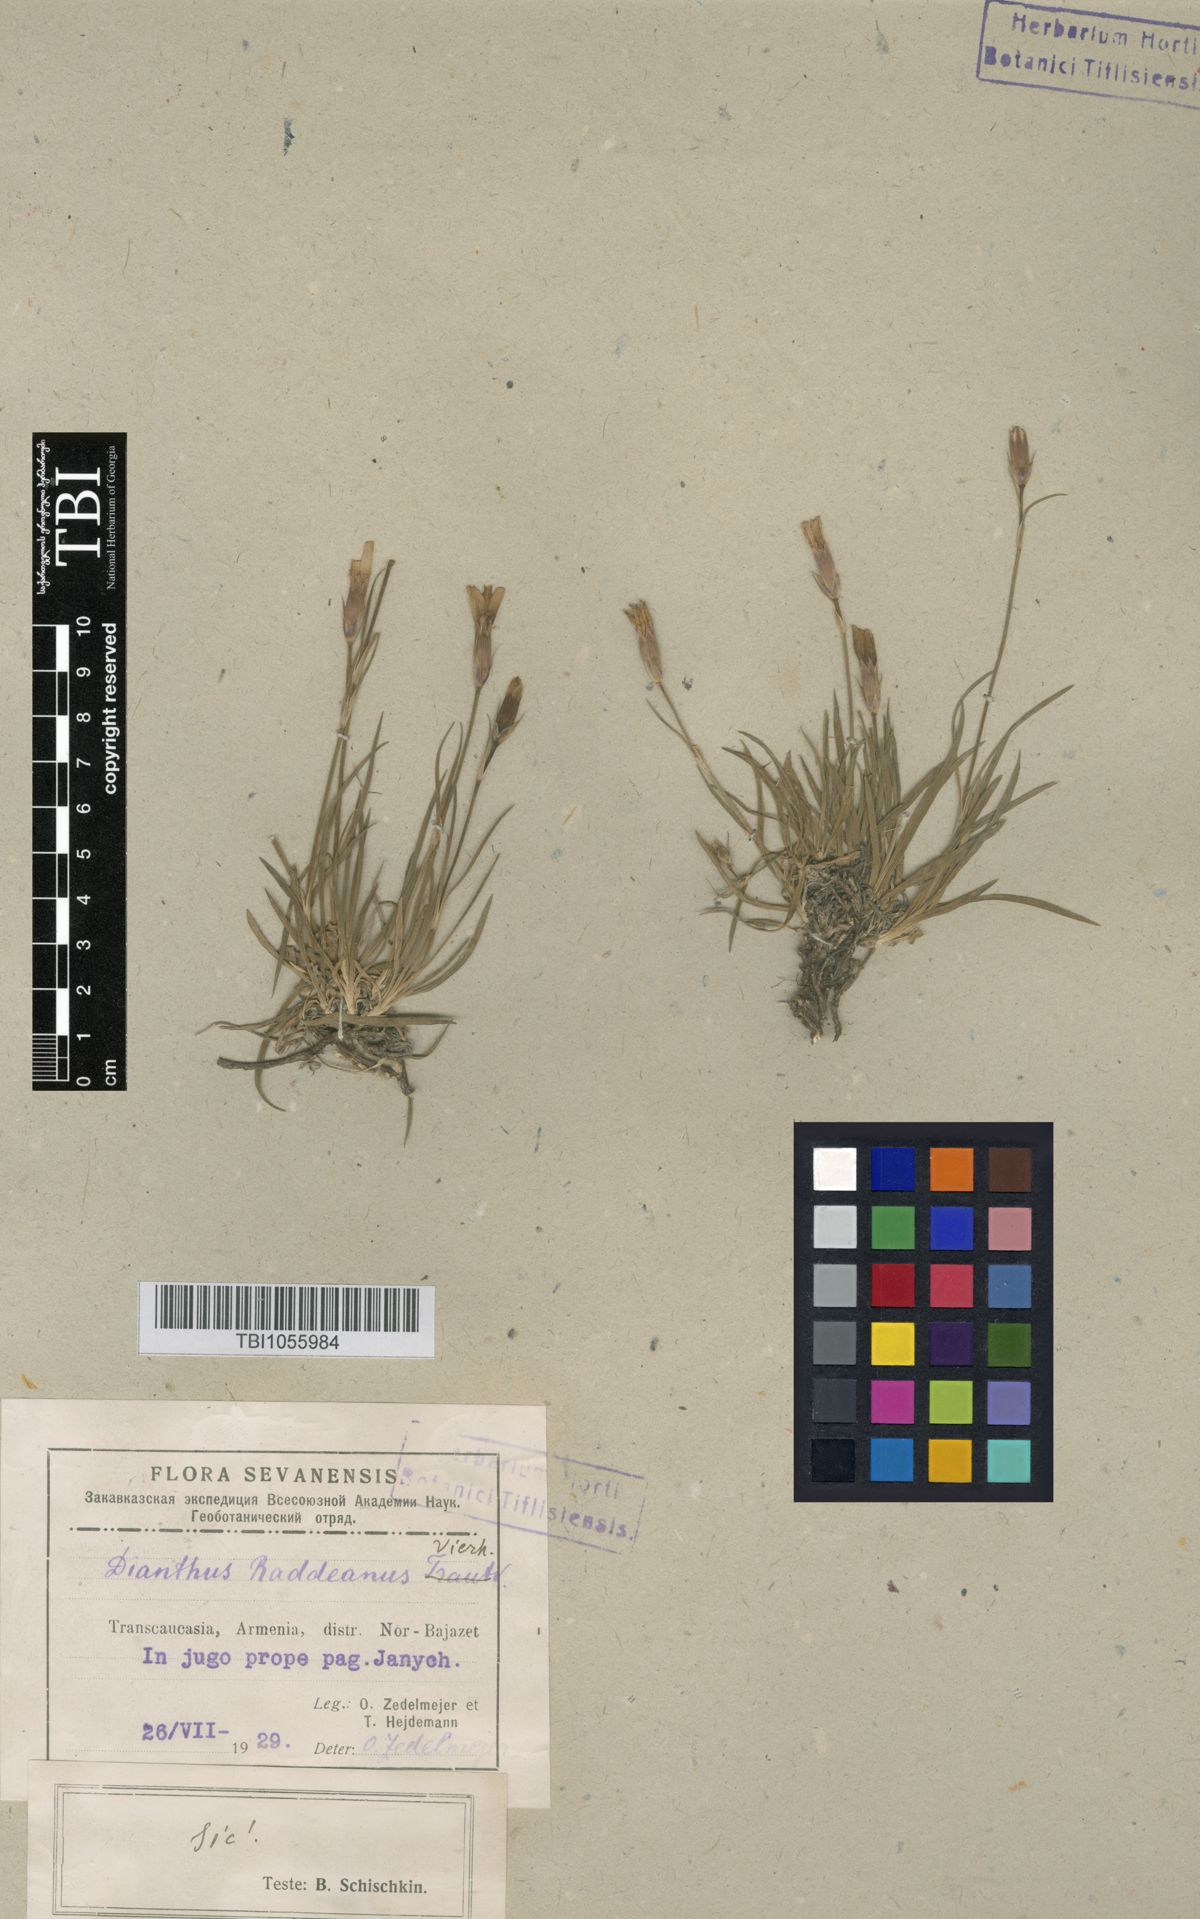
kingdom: Plantae
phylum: Tracheophyta
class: Magnoliopsida
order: Caryophyllales
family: Caryophyllaceae
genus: Dianthus
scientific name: Dianthus raddeanus
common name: Radde's pink
